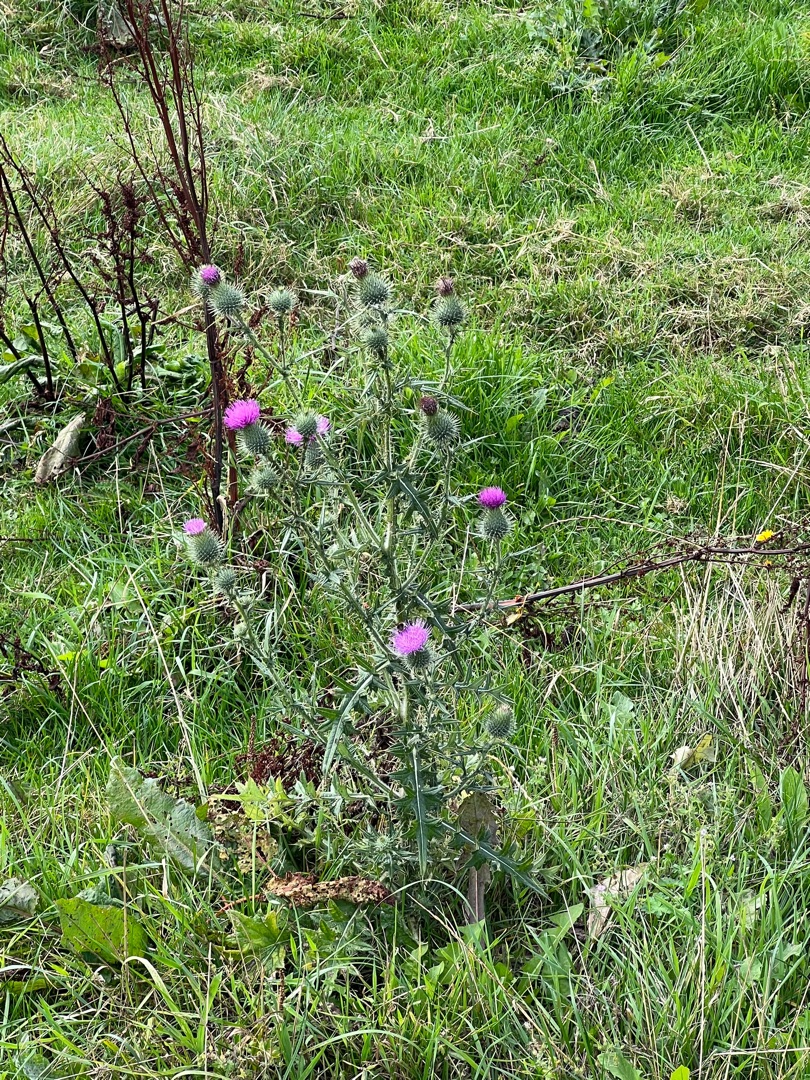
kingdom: Plantae
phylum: Tracheophyta
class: Magnoliopsida
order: Asterales
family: Asteraceae
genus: Cirsium
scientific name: Cirsium vulgare
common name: Horse-tidsel
